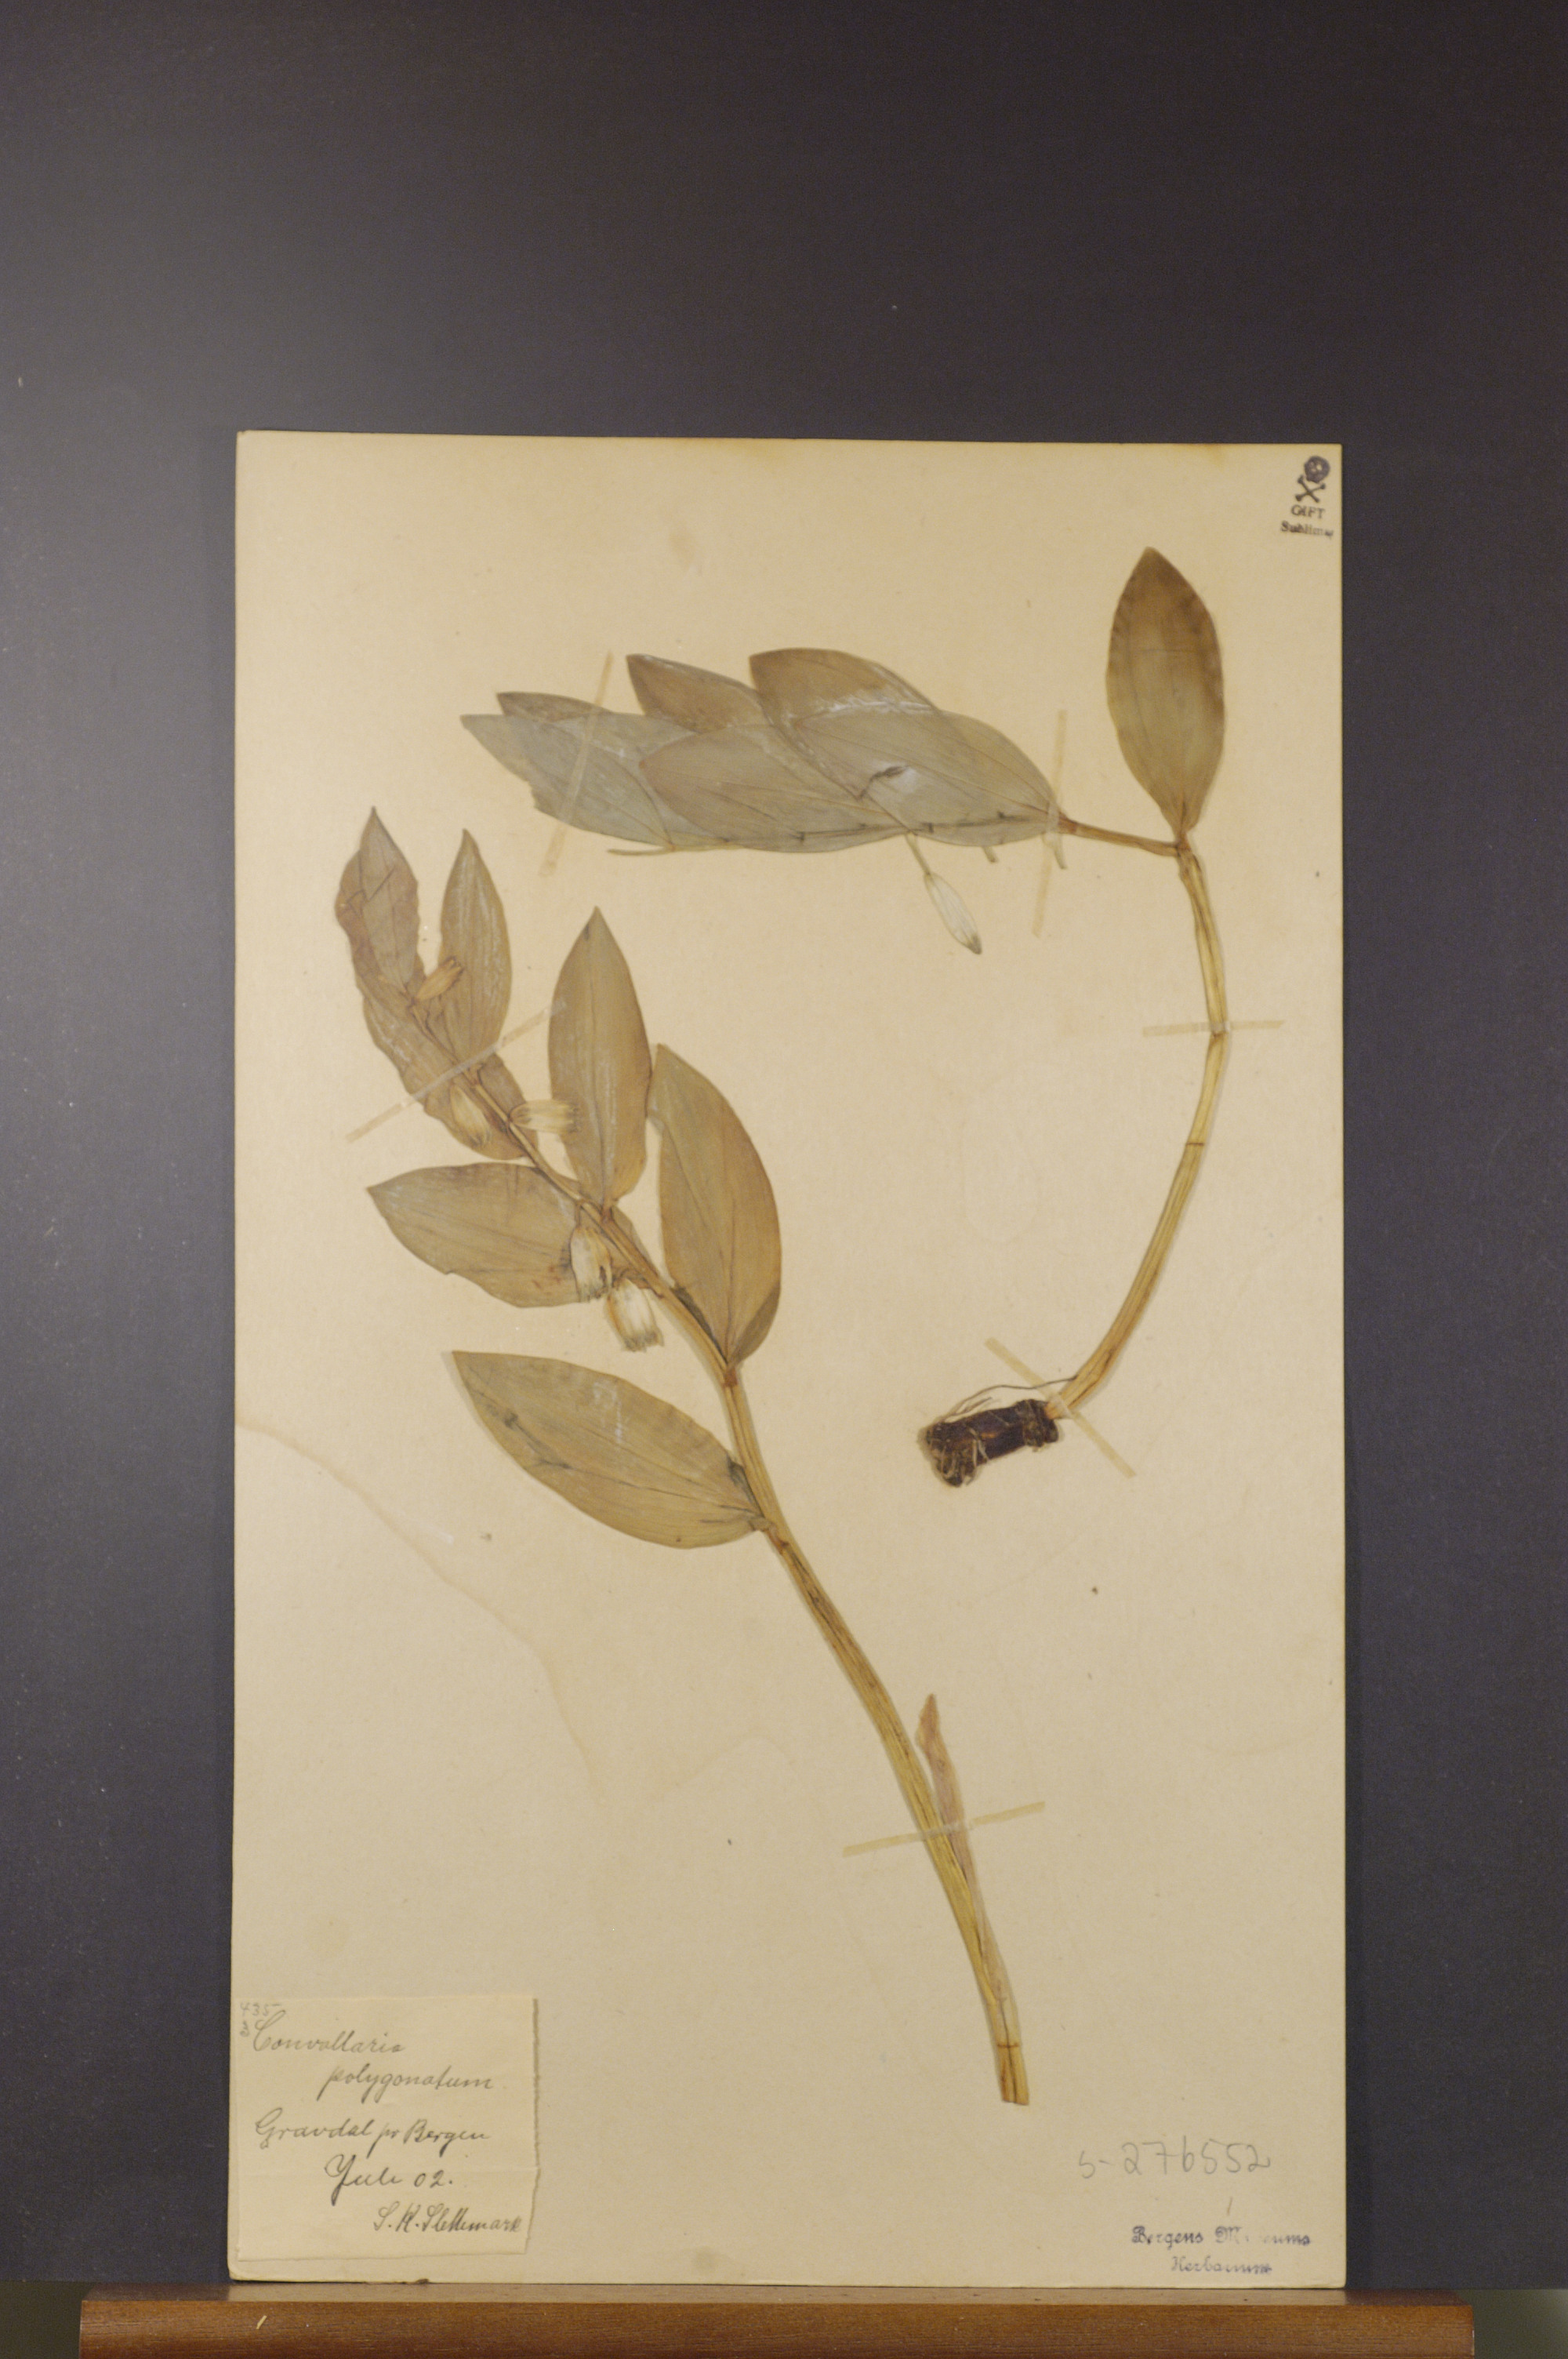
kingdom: Plantae
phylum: Tracheophyta
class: Liliopsida
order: Asparagales
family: Asparagaceae
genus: Polygonatum
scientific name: Polygonatum odoratum
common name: Angular solomon's-seal
